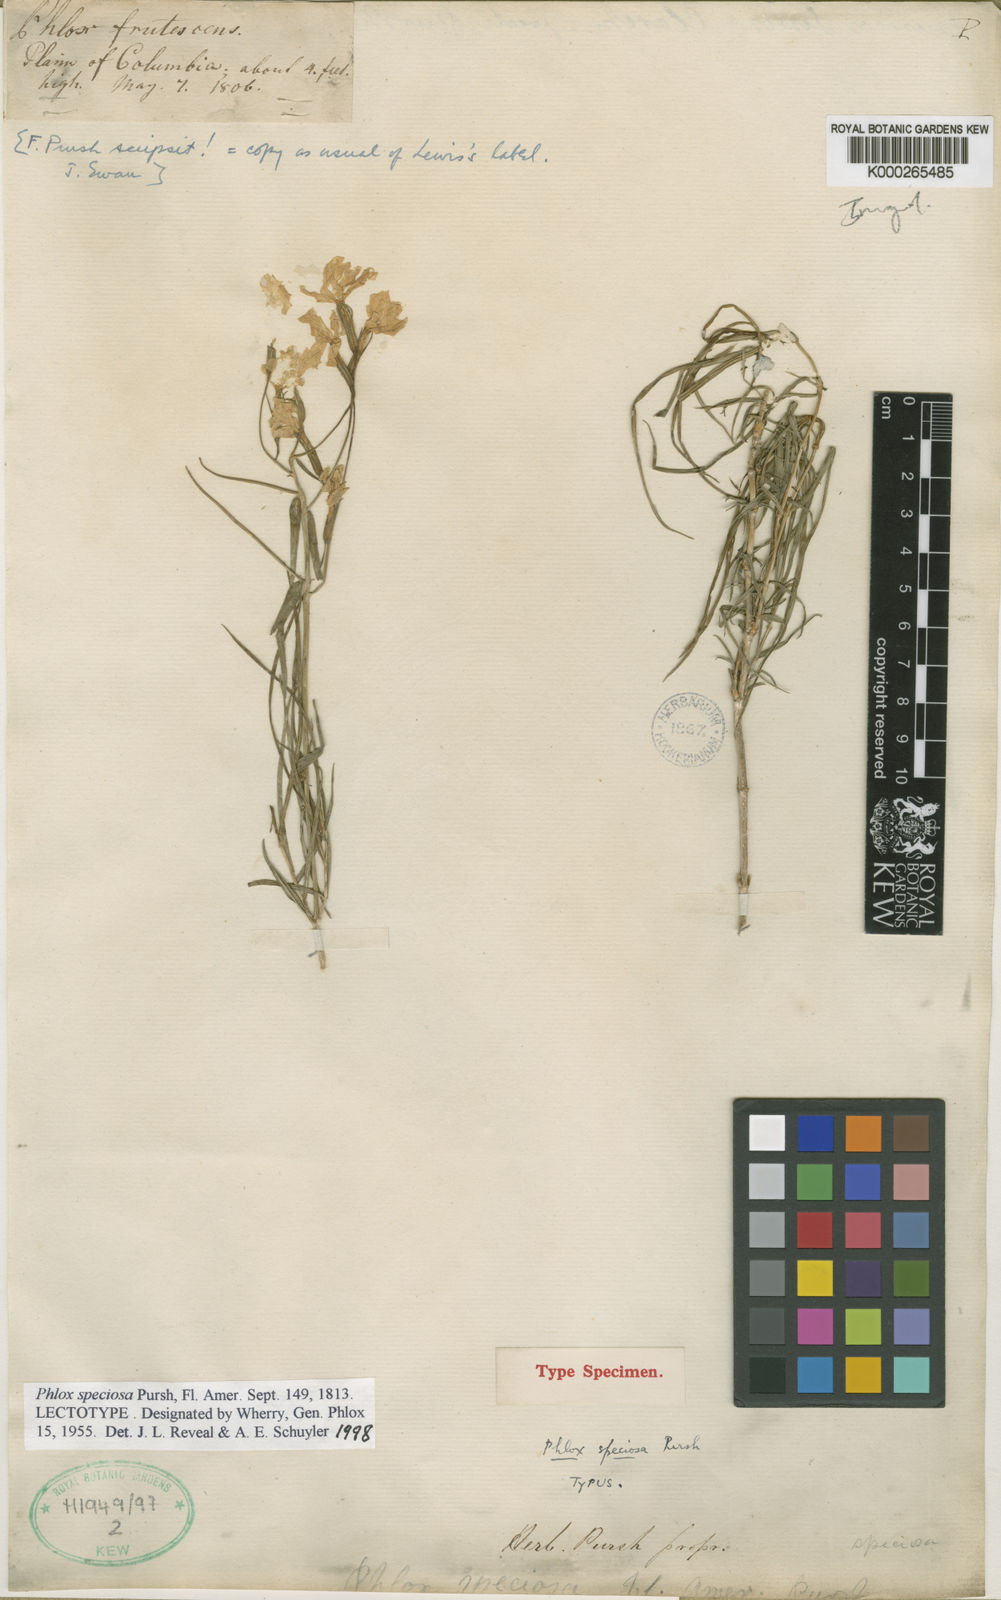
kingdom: Plantae
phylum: Tracheophyta
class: Magnoliopsida
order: Ericales
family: Polemoniaceae
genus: Phlox
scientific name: Phlox speciosa
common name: Bush phlox
